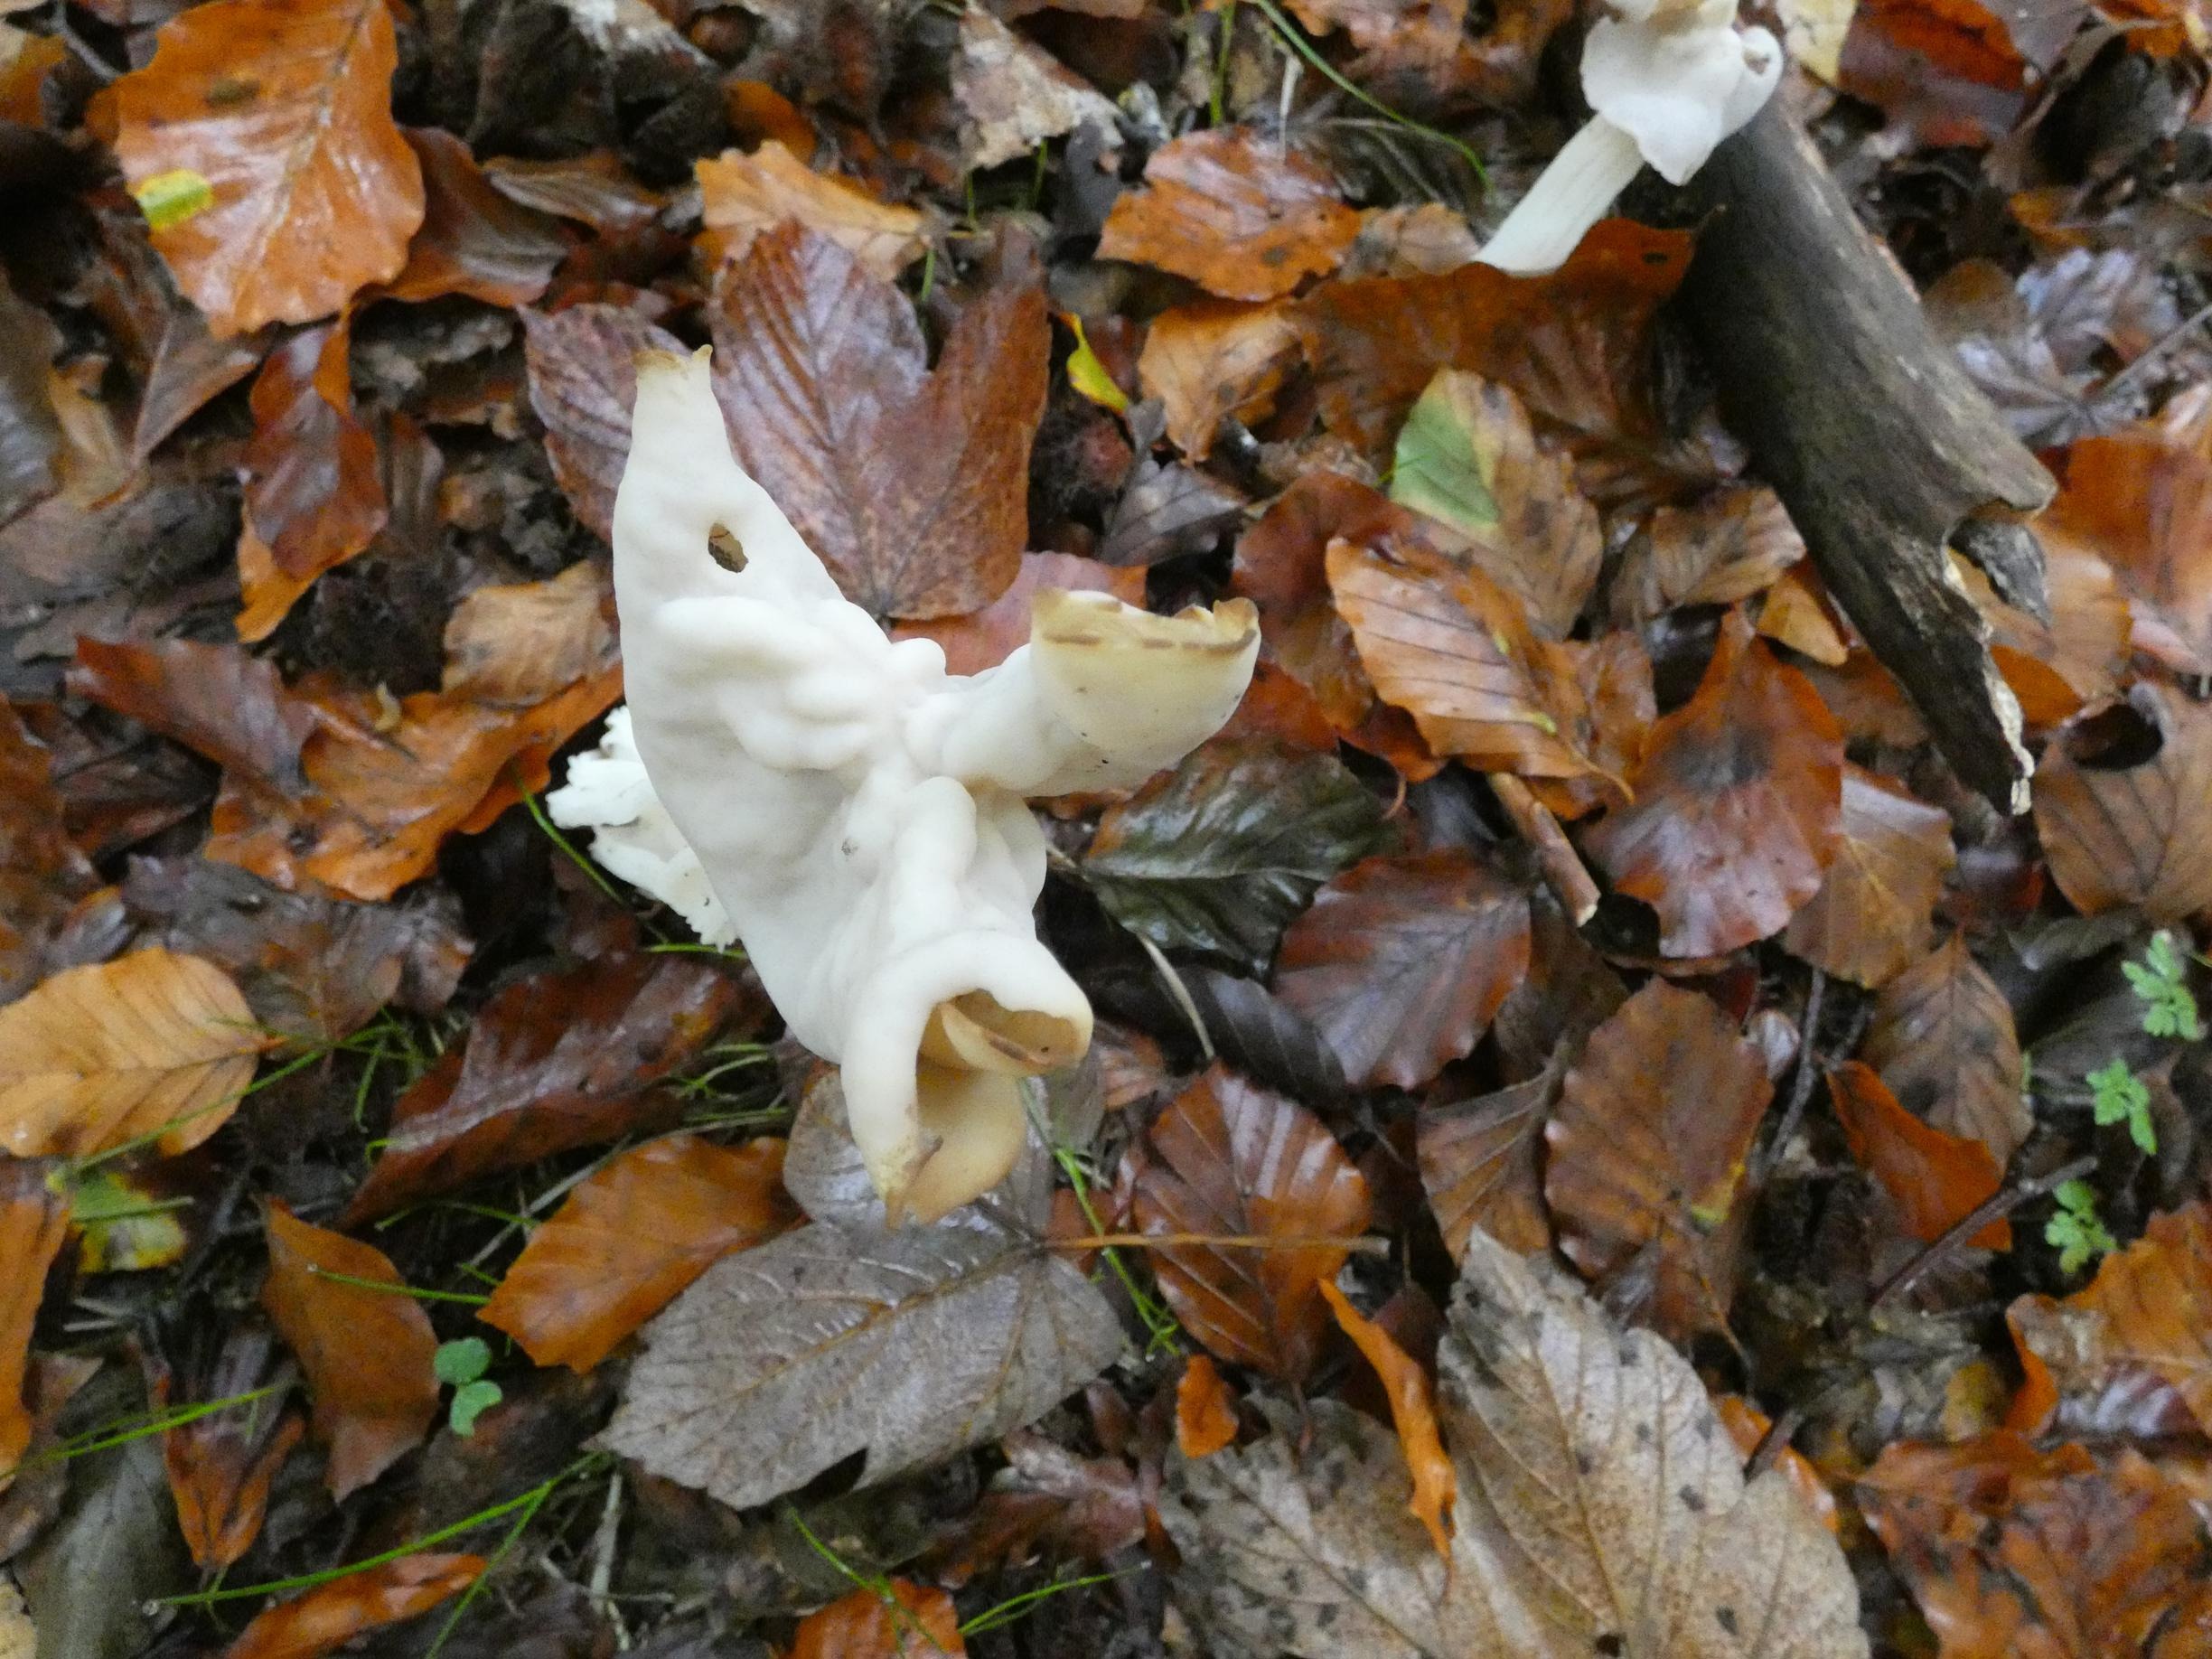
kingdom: Fungi
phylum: Ascomycota
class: Pezizomycetes
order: Pezizales
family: Helvellaceae
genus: Helvella
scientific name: Helvella crispa
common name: Kruset foldhat
